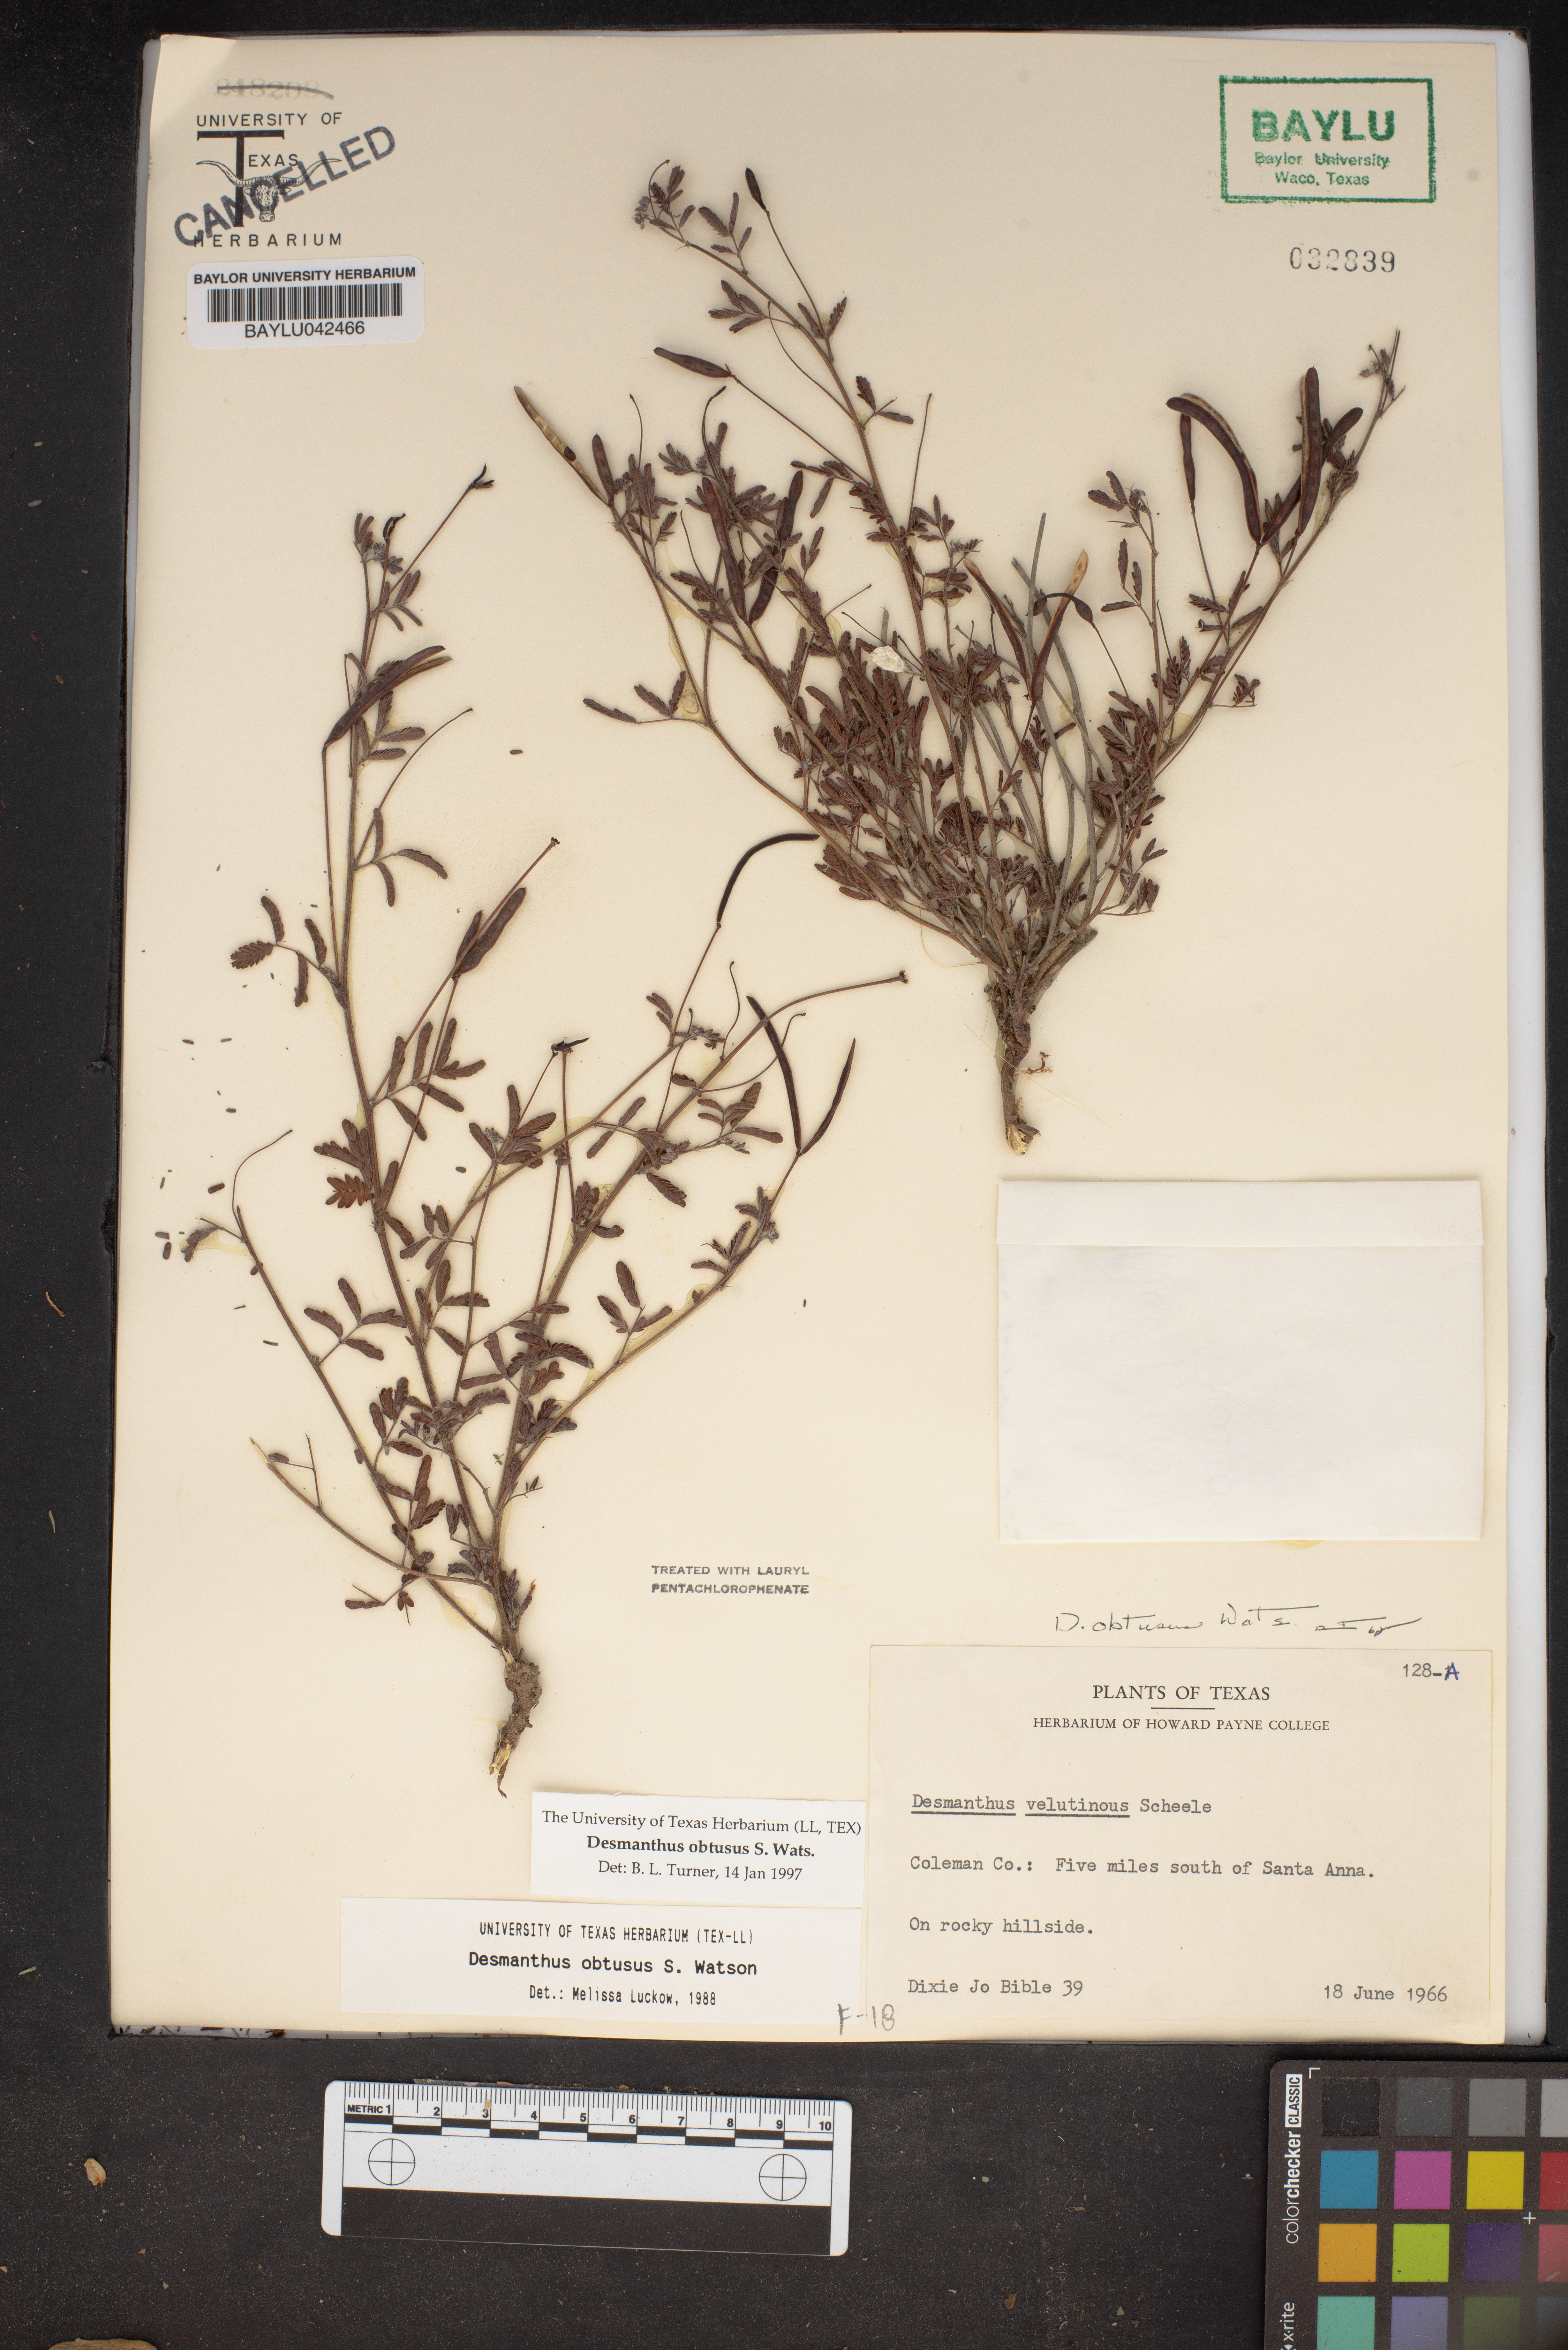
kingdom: Plantae
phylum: Tracheophyta
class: Magnoliopsida
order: Fabales
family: Fabaceae
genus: Desmanthus
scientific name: Desmanthus obtusus
